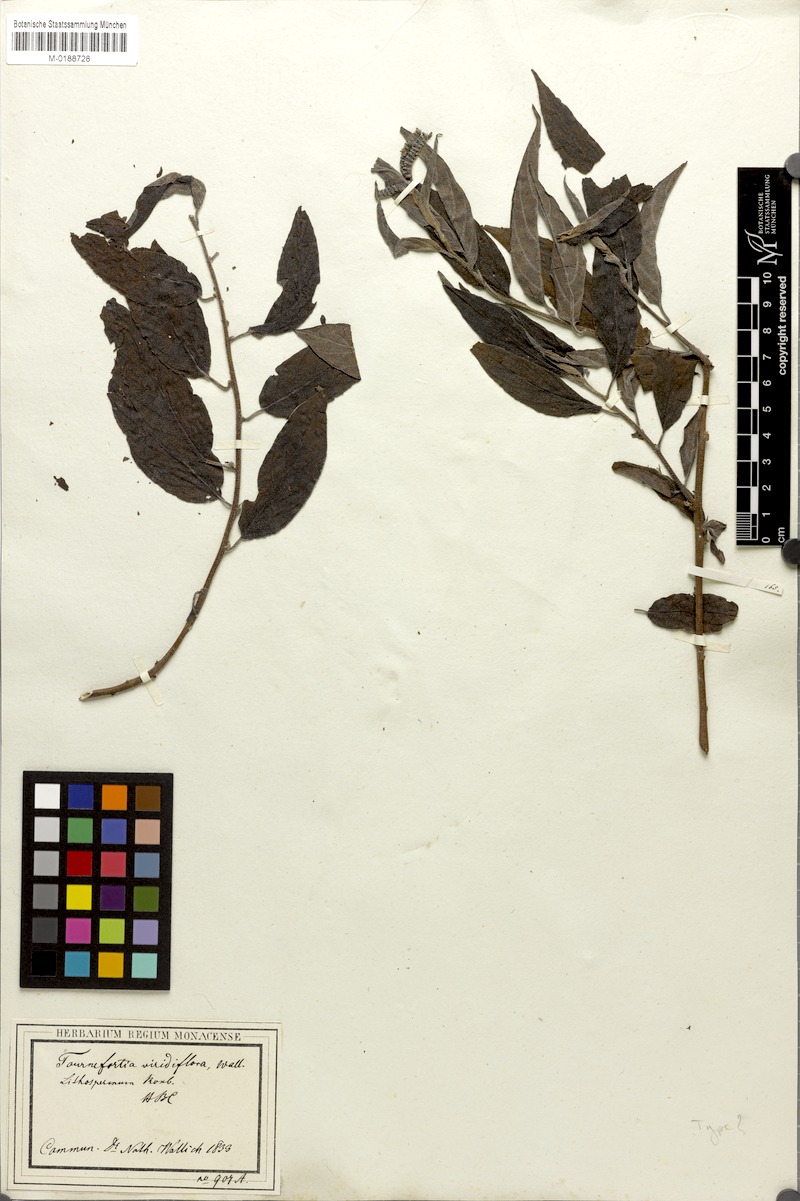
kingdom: Plantae
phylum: Tracheophyta
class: Magnoliopsida
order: Boraginales
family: Ehretiaceae
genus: Ehretia
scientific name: Ehretia aquatica
